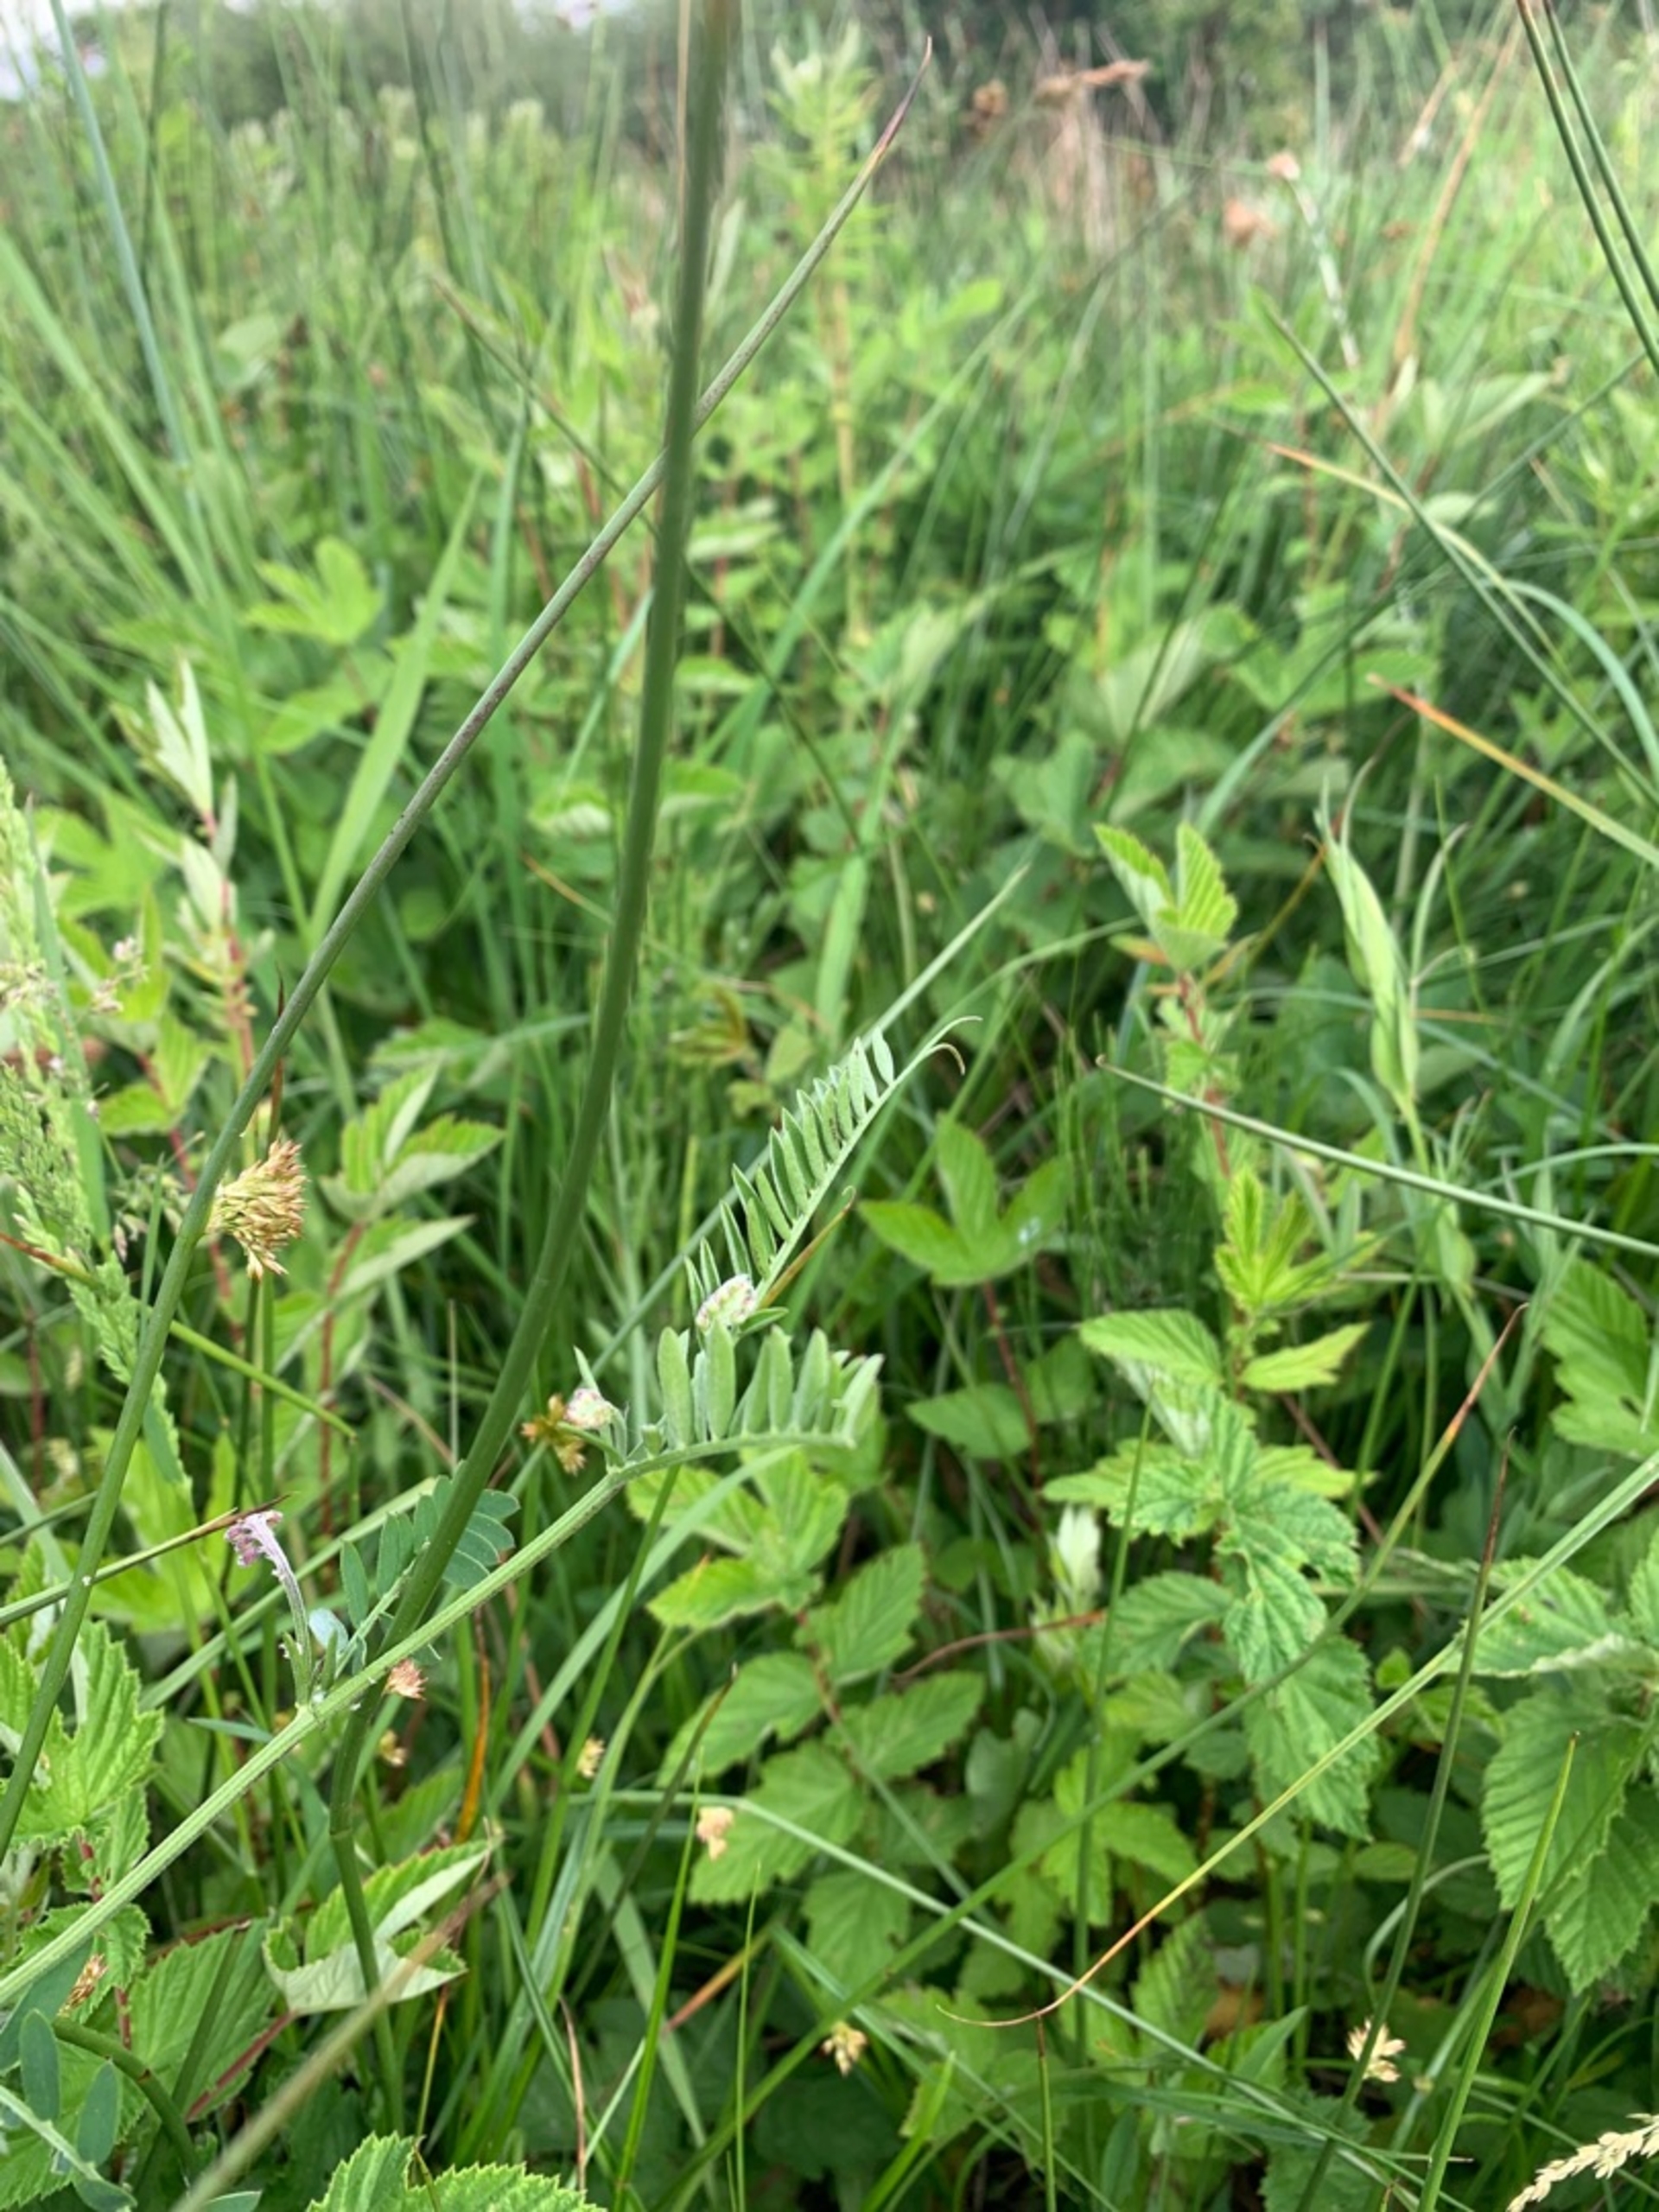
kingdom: Plantae
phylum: Tracheophyta
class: Magnoliopsida
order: Fabales
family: Fabaceae
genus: Vicia
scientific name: Vicia cracca
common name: Muse-vikke
